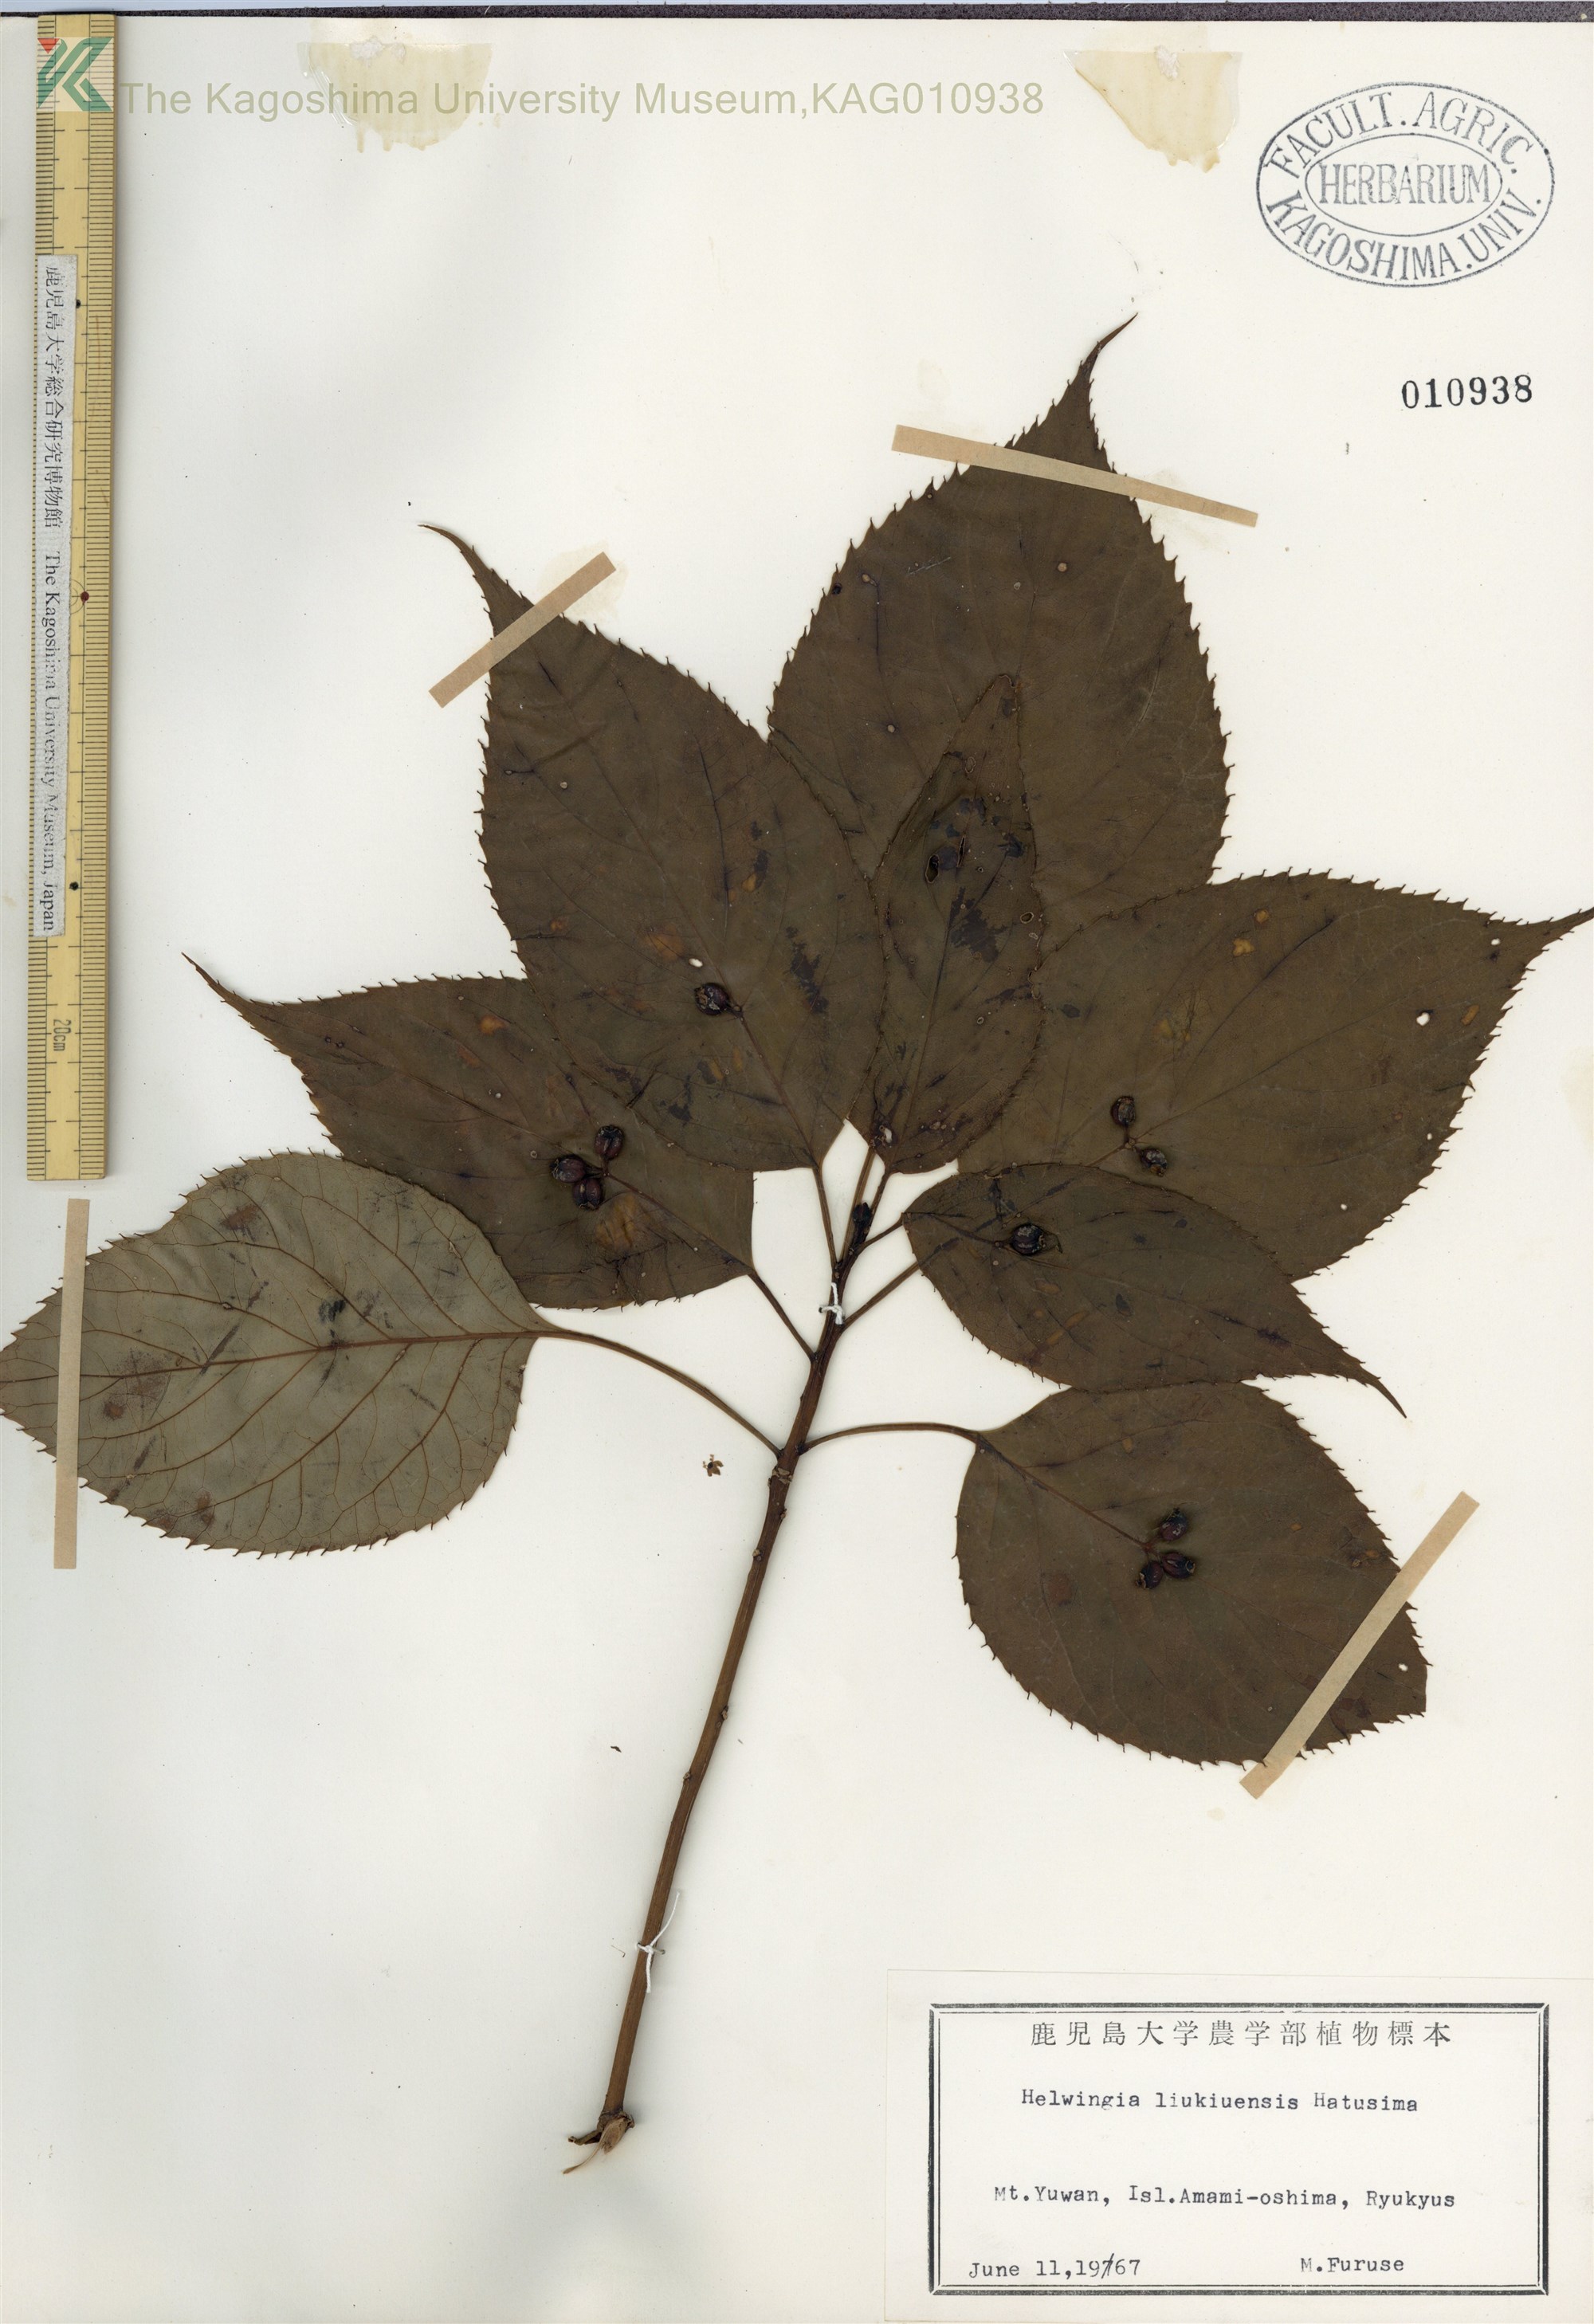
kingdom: Plantae
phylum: Tracheophyta
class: Magnoliopsida
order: Aquifoliales
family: Helwingiaceae
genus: Helwingia
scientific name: Helwingia japonica
